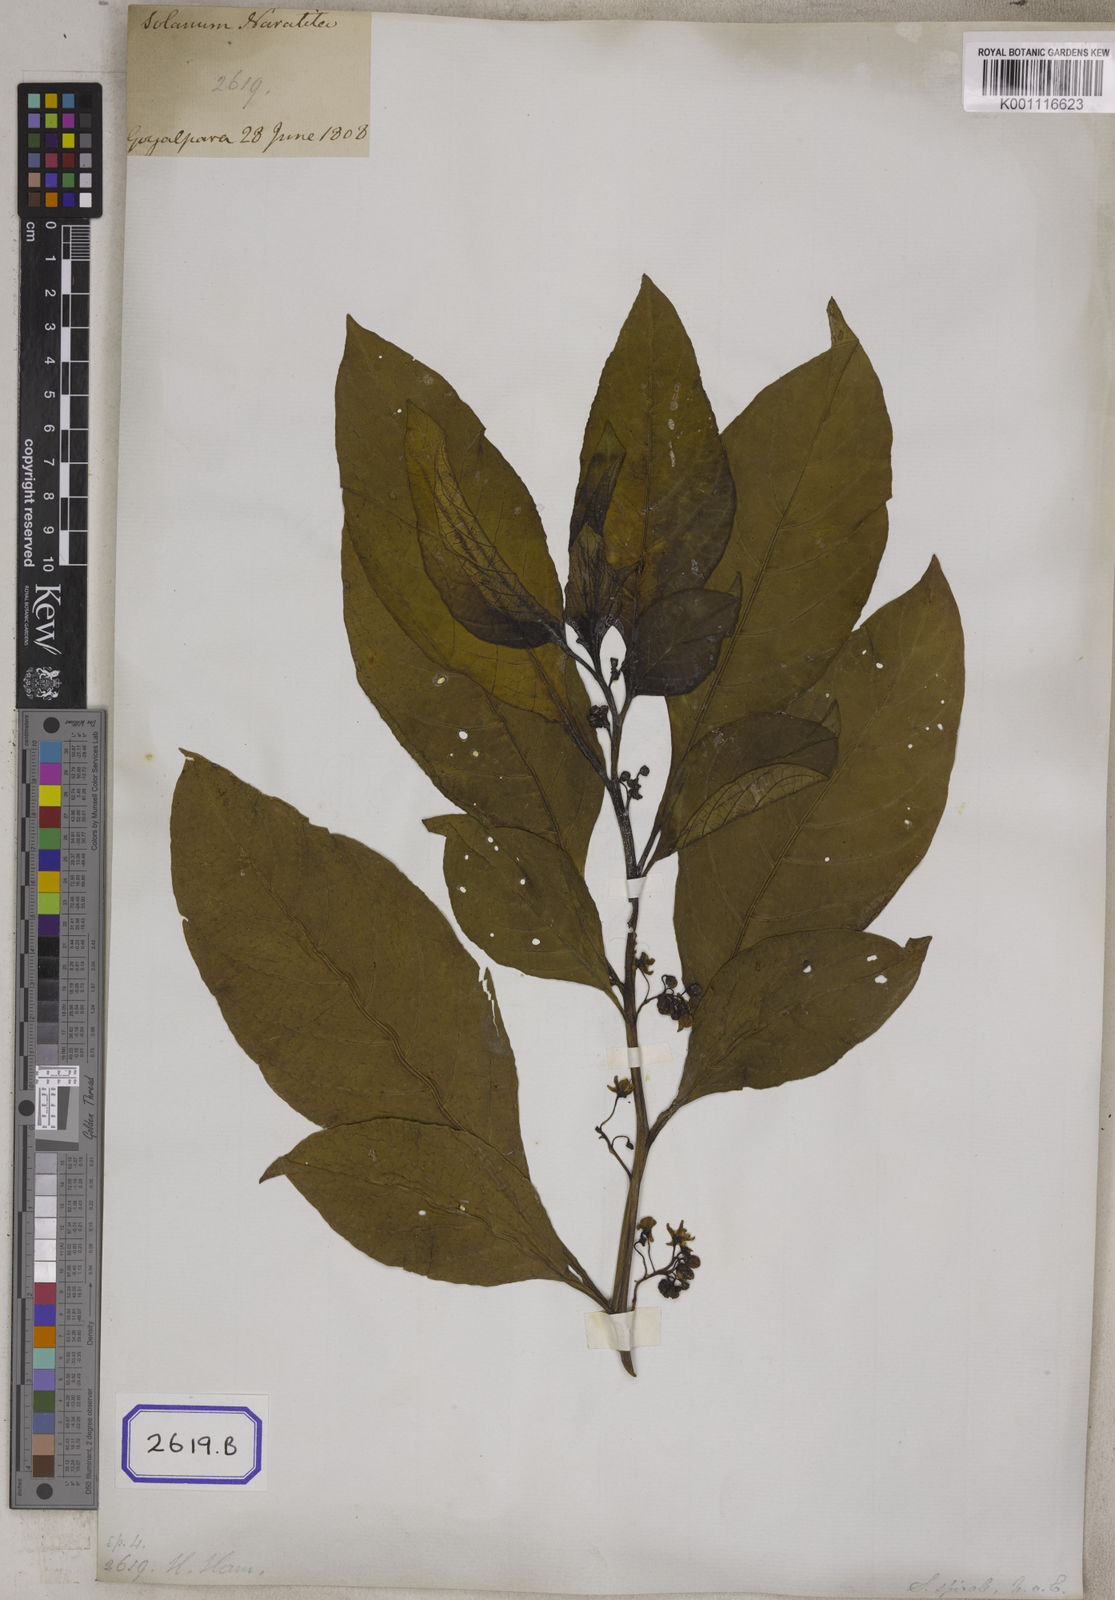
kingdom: Plantae
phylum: Tracheophyta
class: Magnoliopsida
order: Solanales
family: Solanaceae
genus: Solanum
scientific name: Solanum spirale
